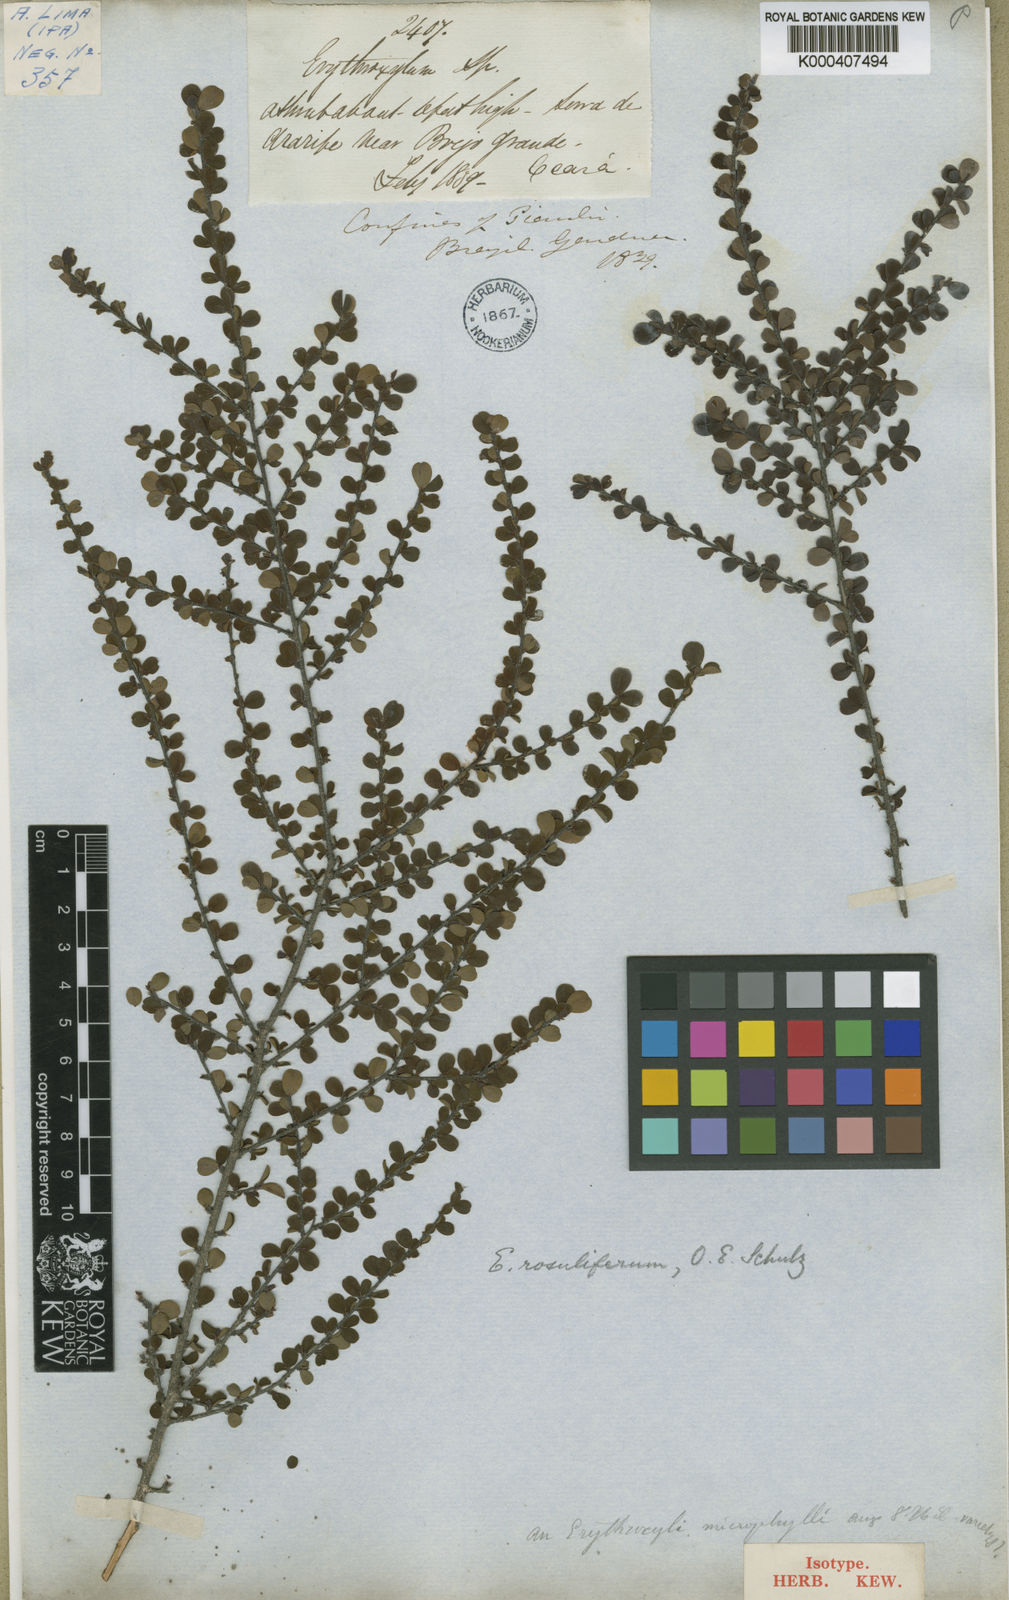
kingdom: Plantae
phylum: Tracheophyta
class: Magnoliopsida
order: Malpighiales
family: Erythroxylaceae
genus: Erythroxylum
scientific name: Erythroxylum betulaceum
